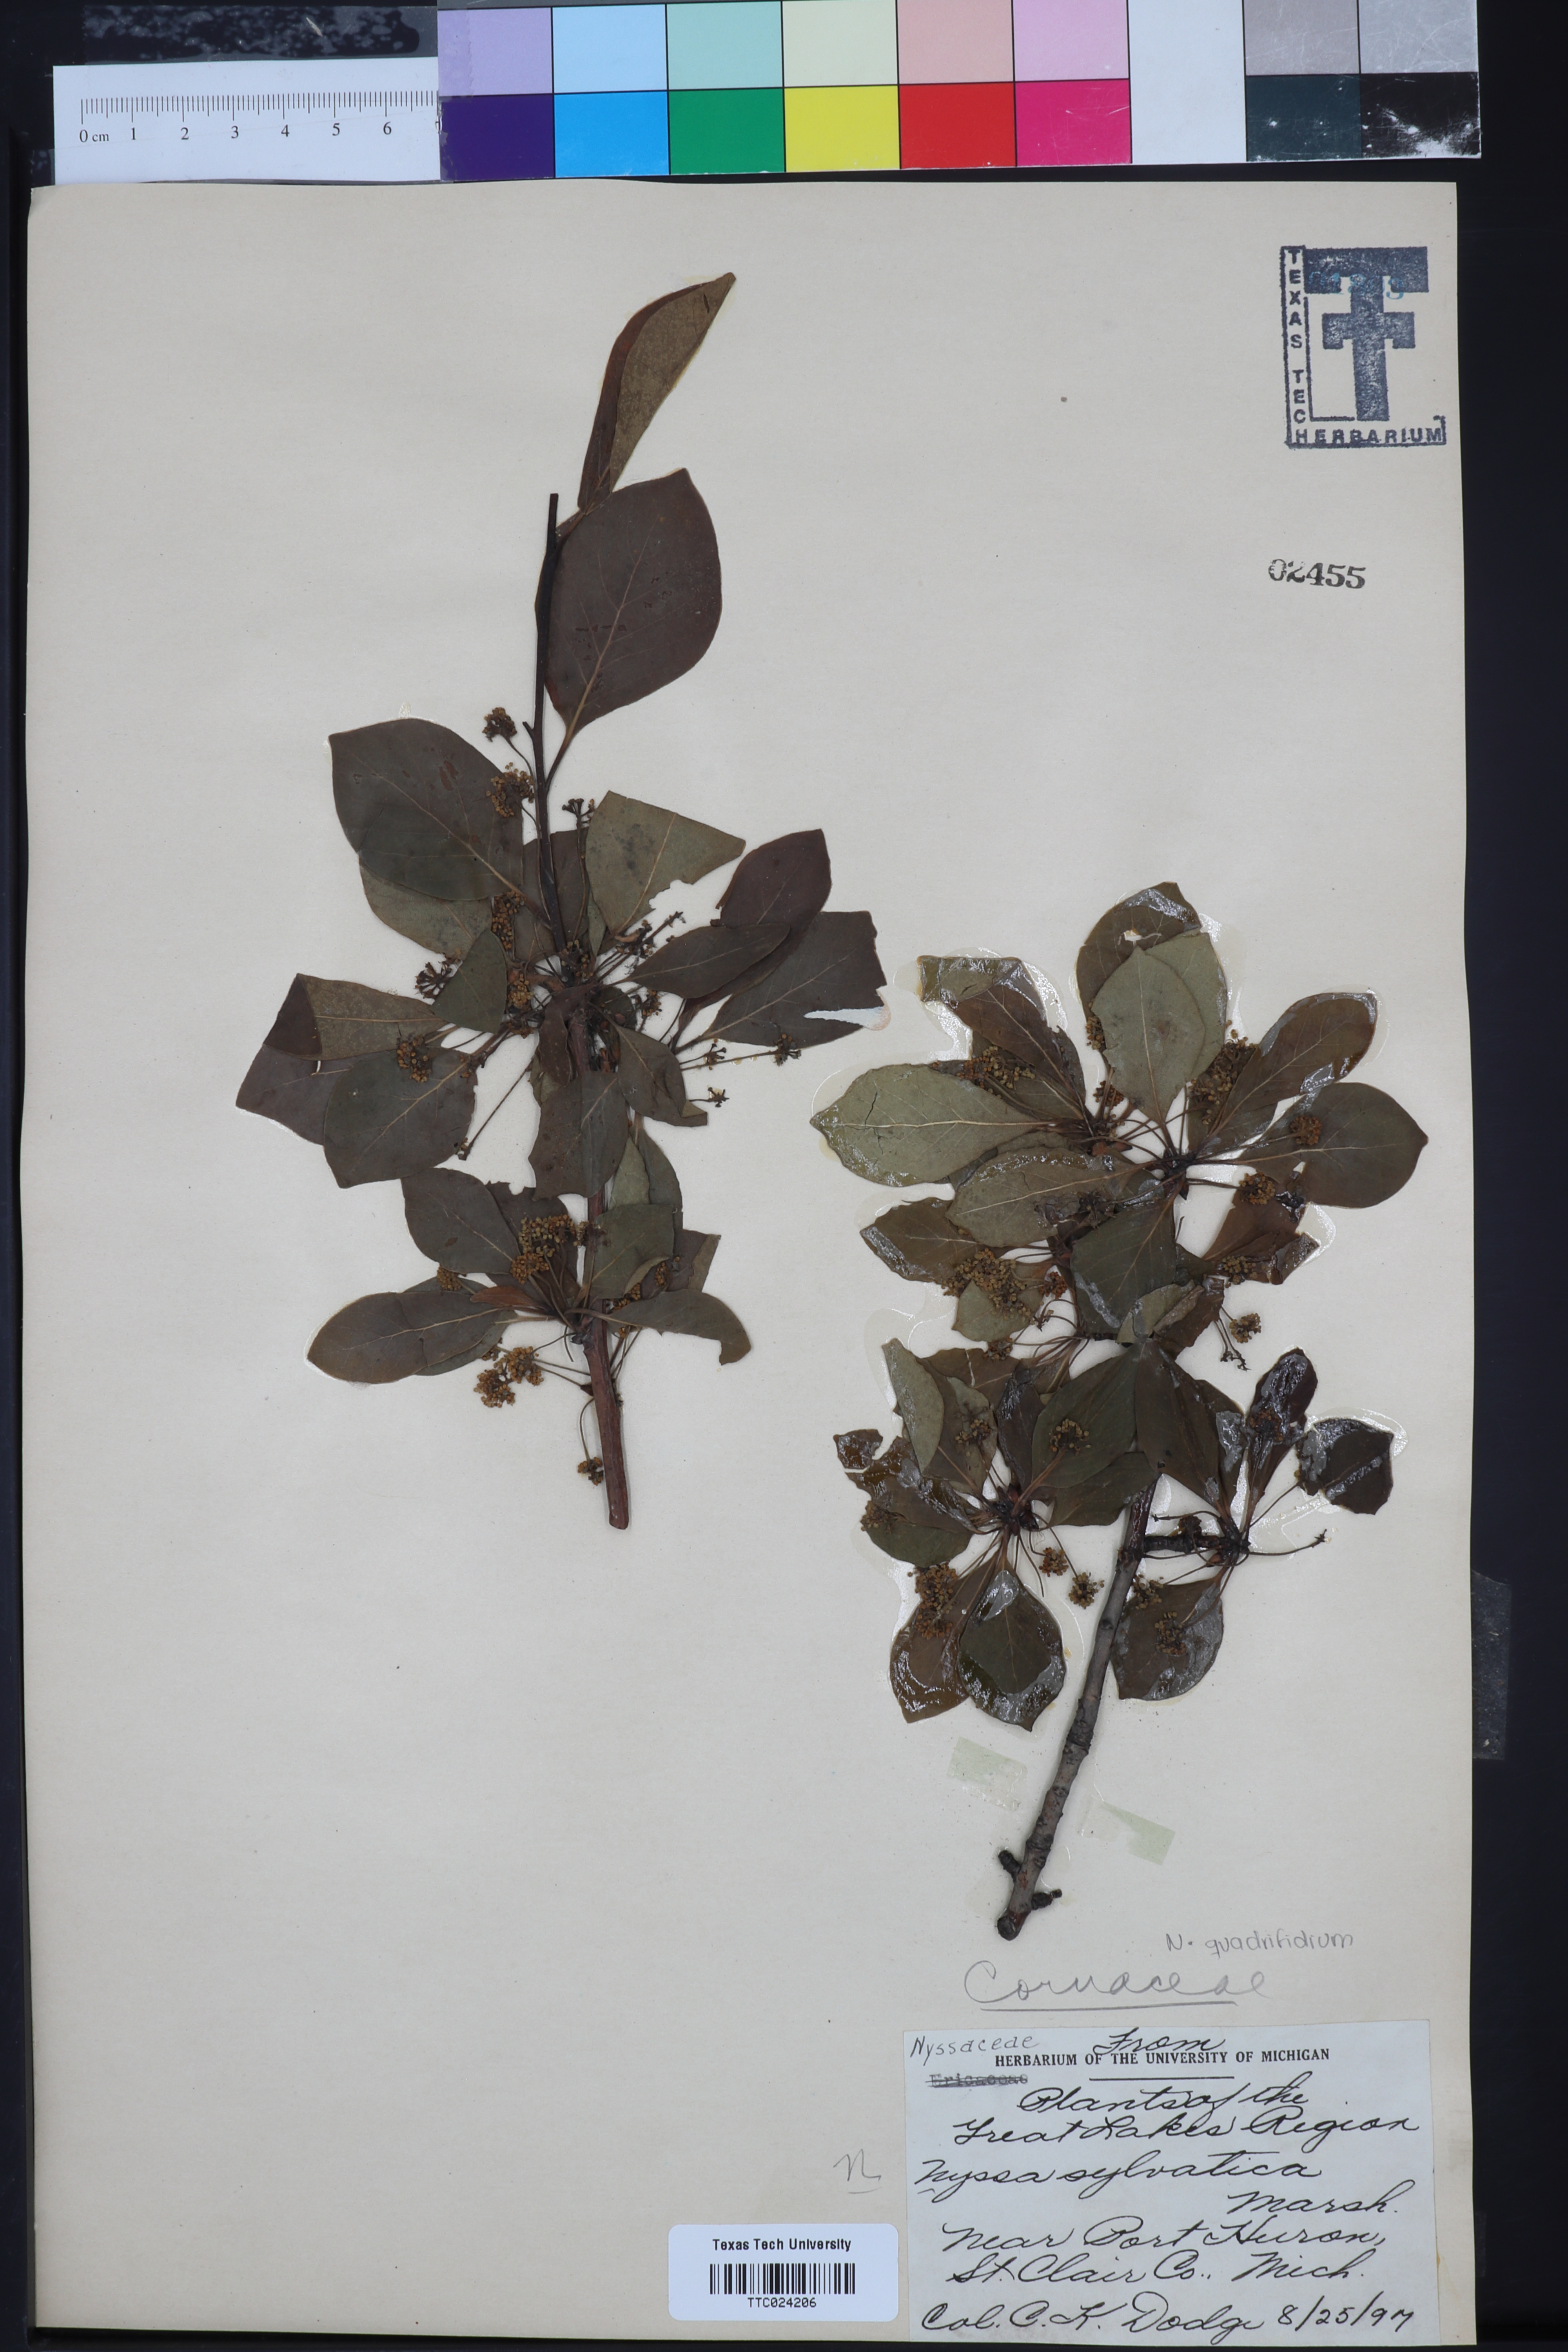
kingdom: Plantae
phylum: Tracheophyta
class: Magnoliopsida
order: Cornales
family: Nyssaceae
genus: Nyssa
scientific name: Nyssa sylvatica
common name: Black tupelo
